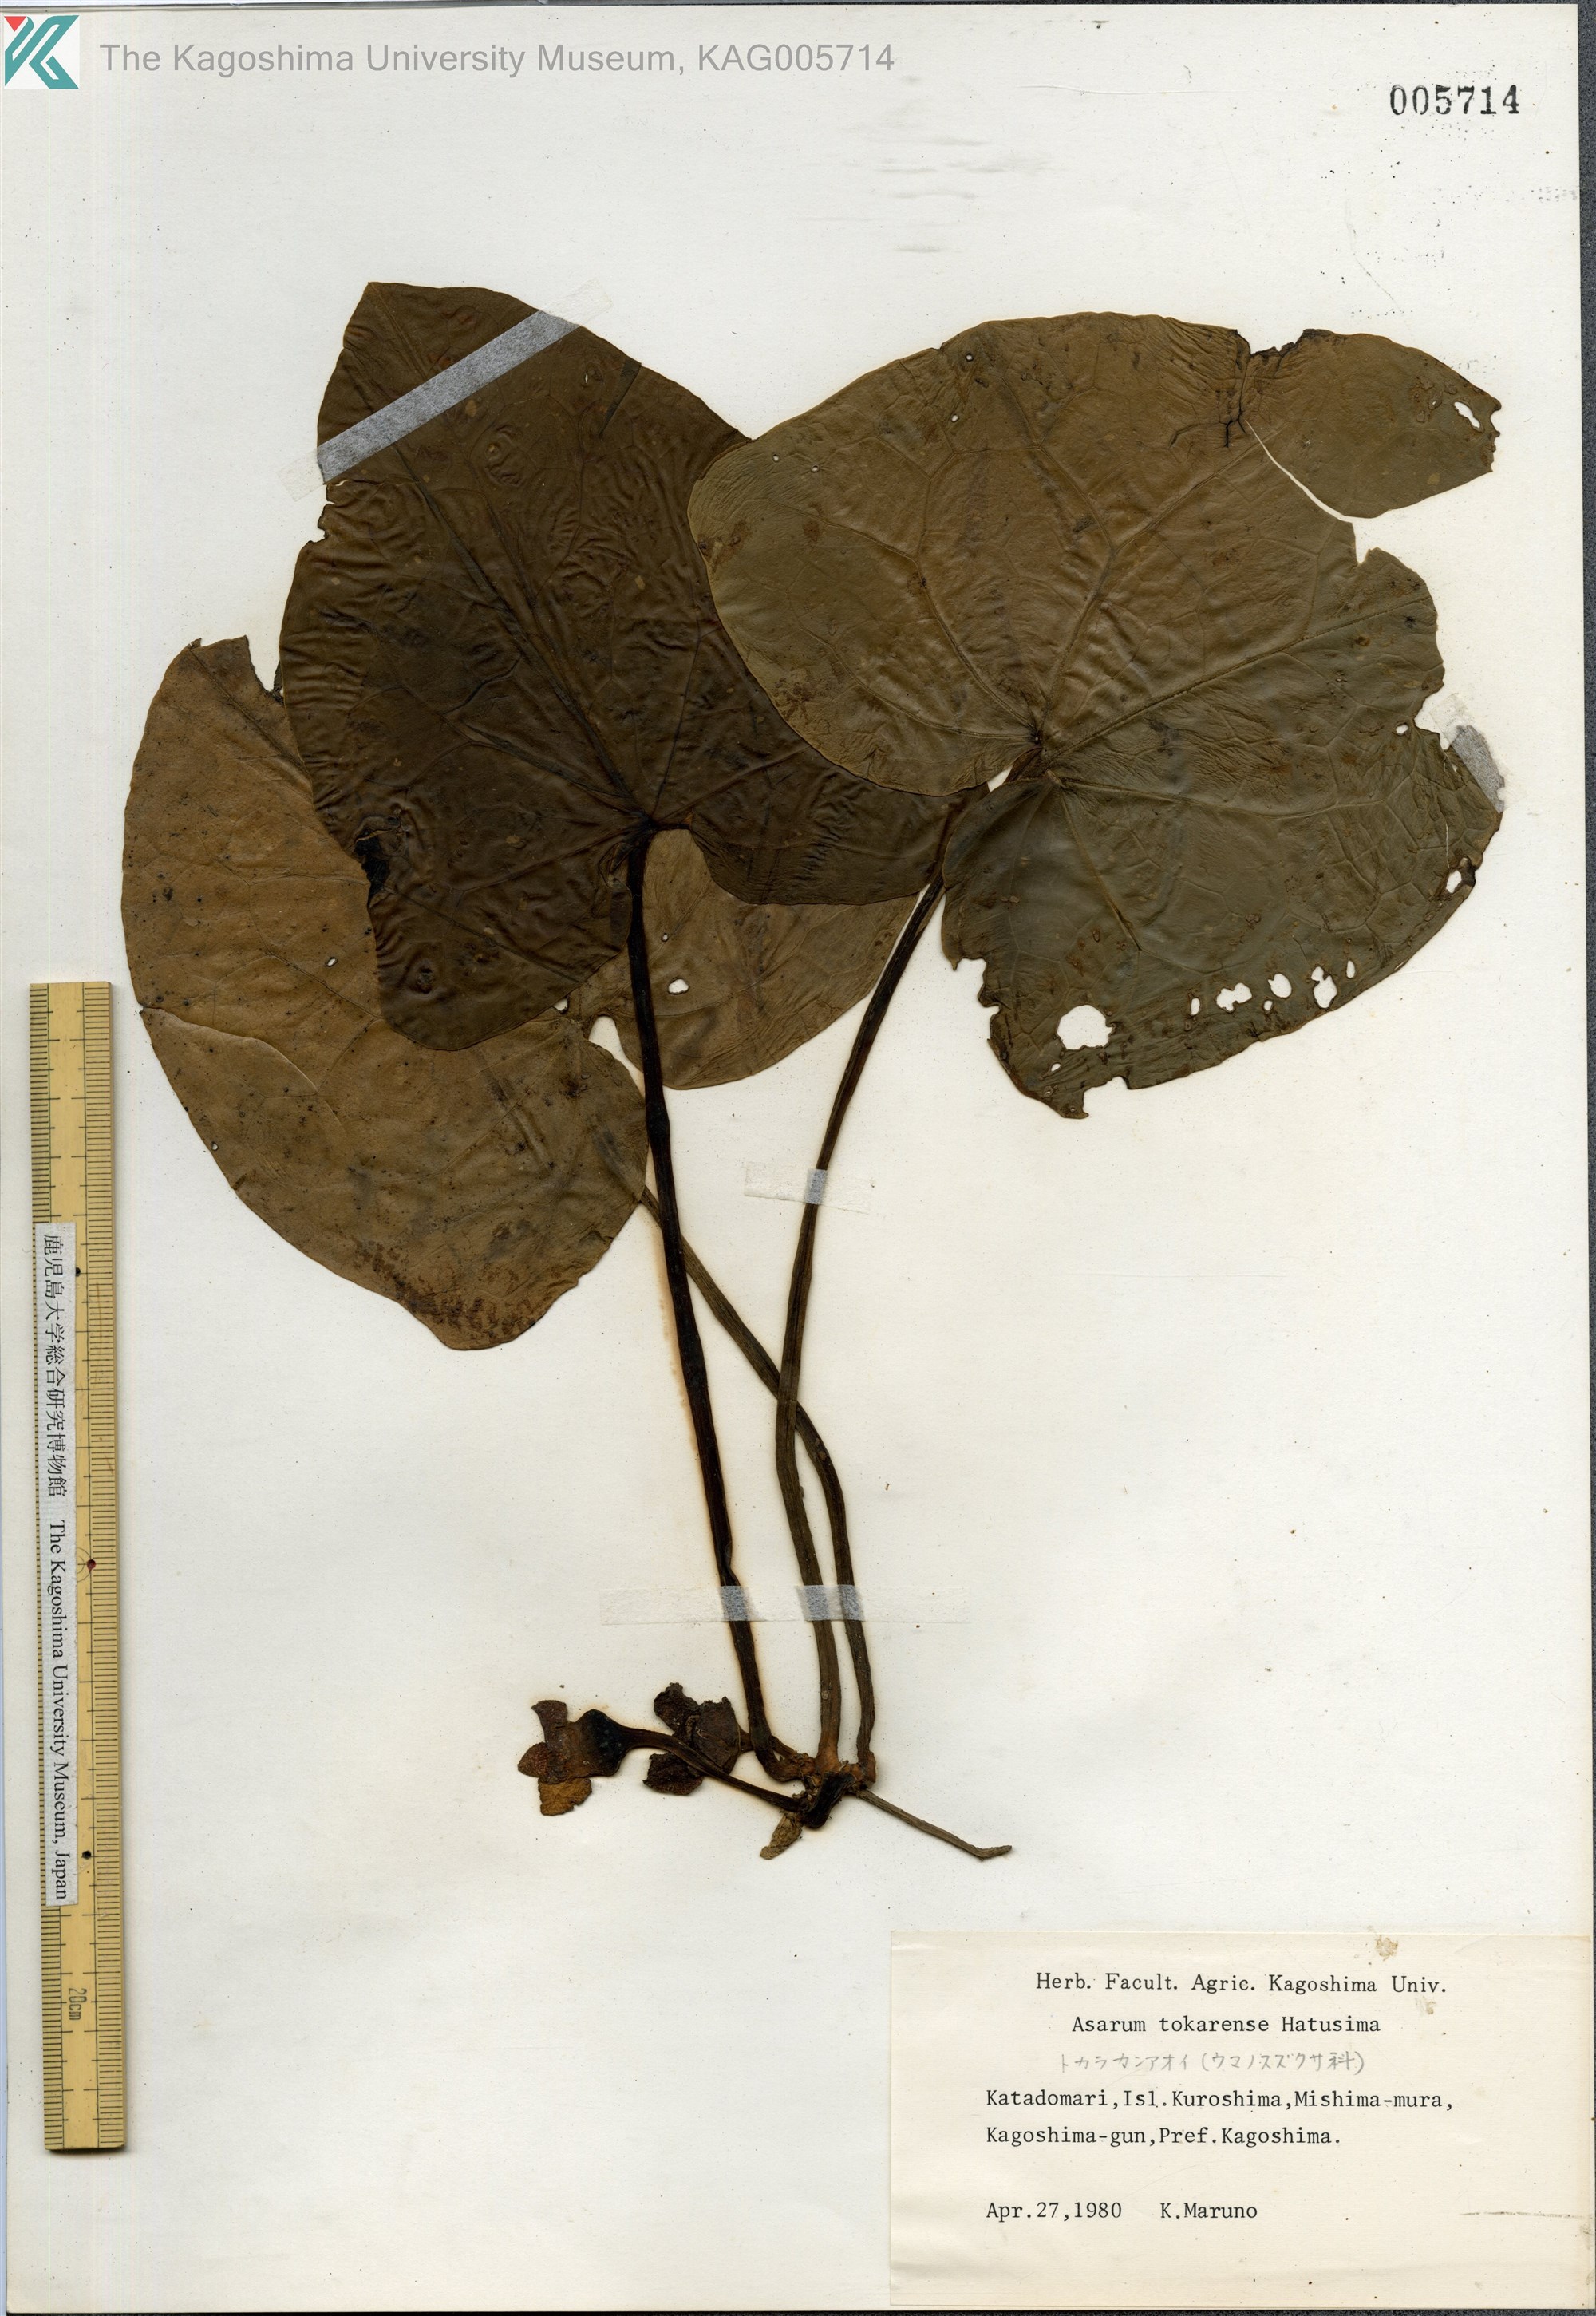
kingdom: Plantae
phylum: Tracheophyta
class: Magnoliopsida
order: Piperales
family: Aristolochiaceae
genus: Asarum
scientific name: Asarum tokarense
